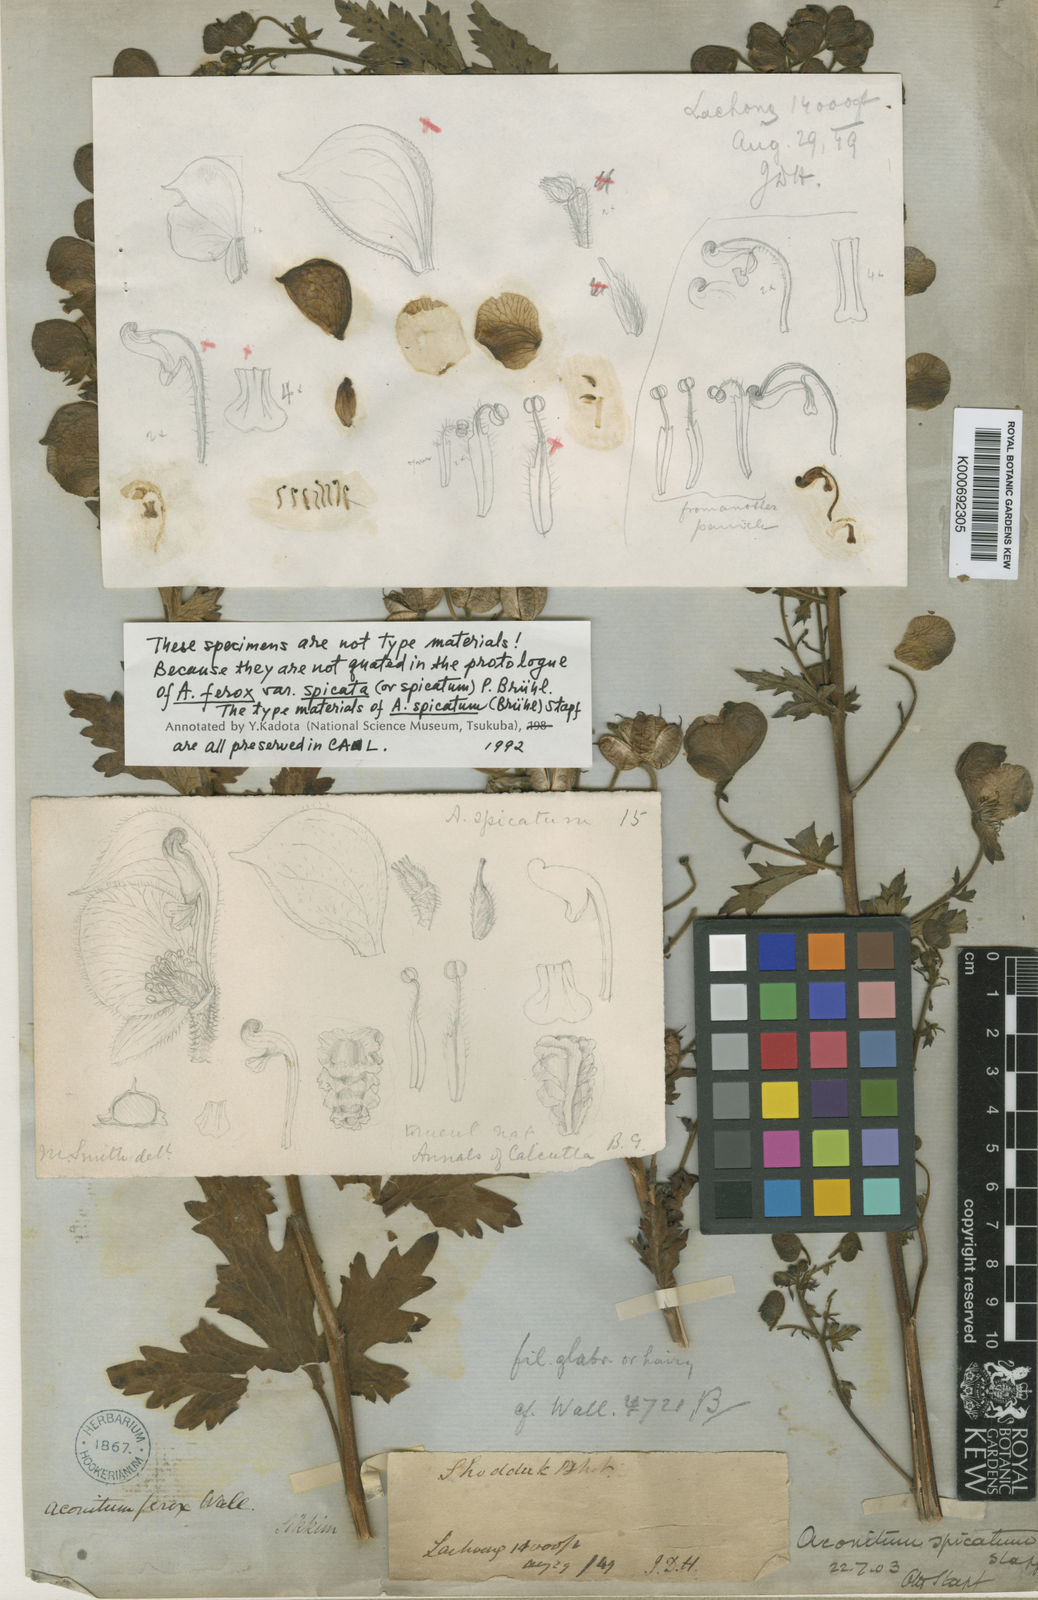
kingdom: Plantae
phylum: Tracheophyta
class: Magnoliopsida
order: Ranunculales
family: Ranunculaceae
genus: Aconitum
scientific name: Aconitum lethale
